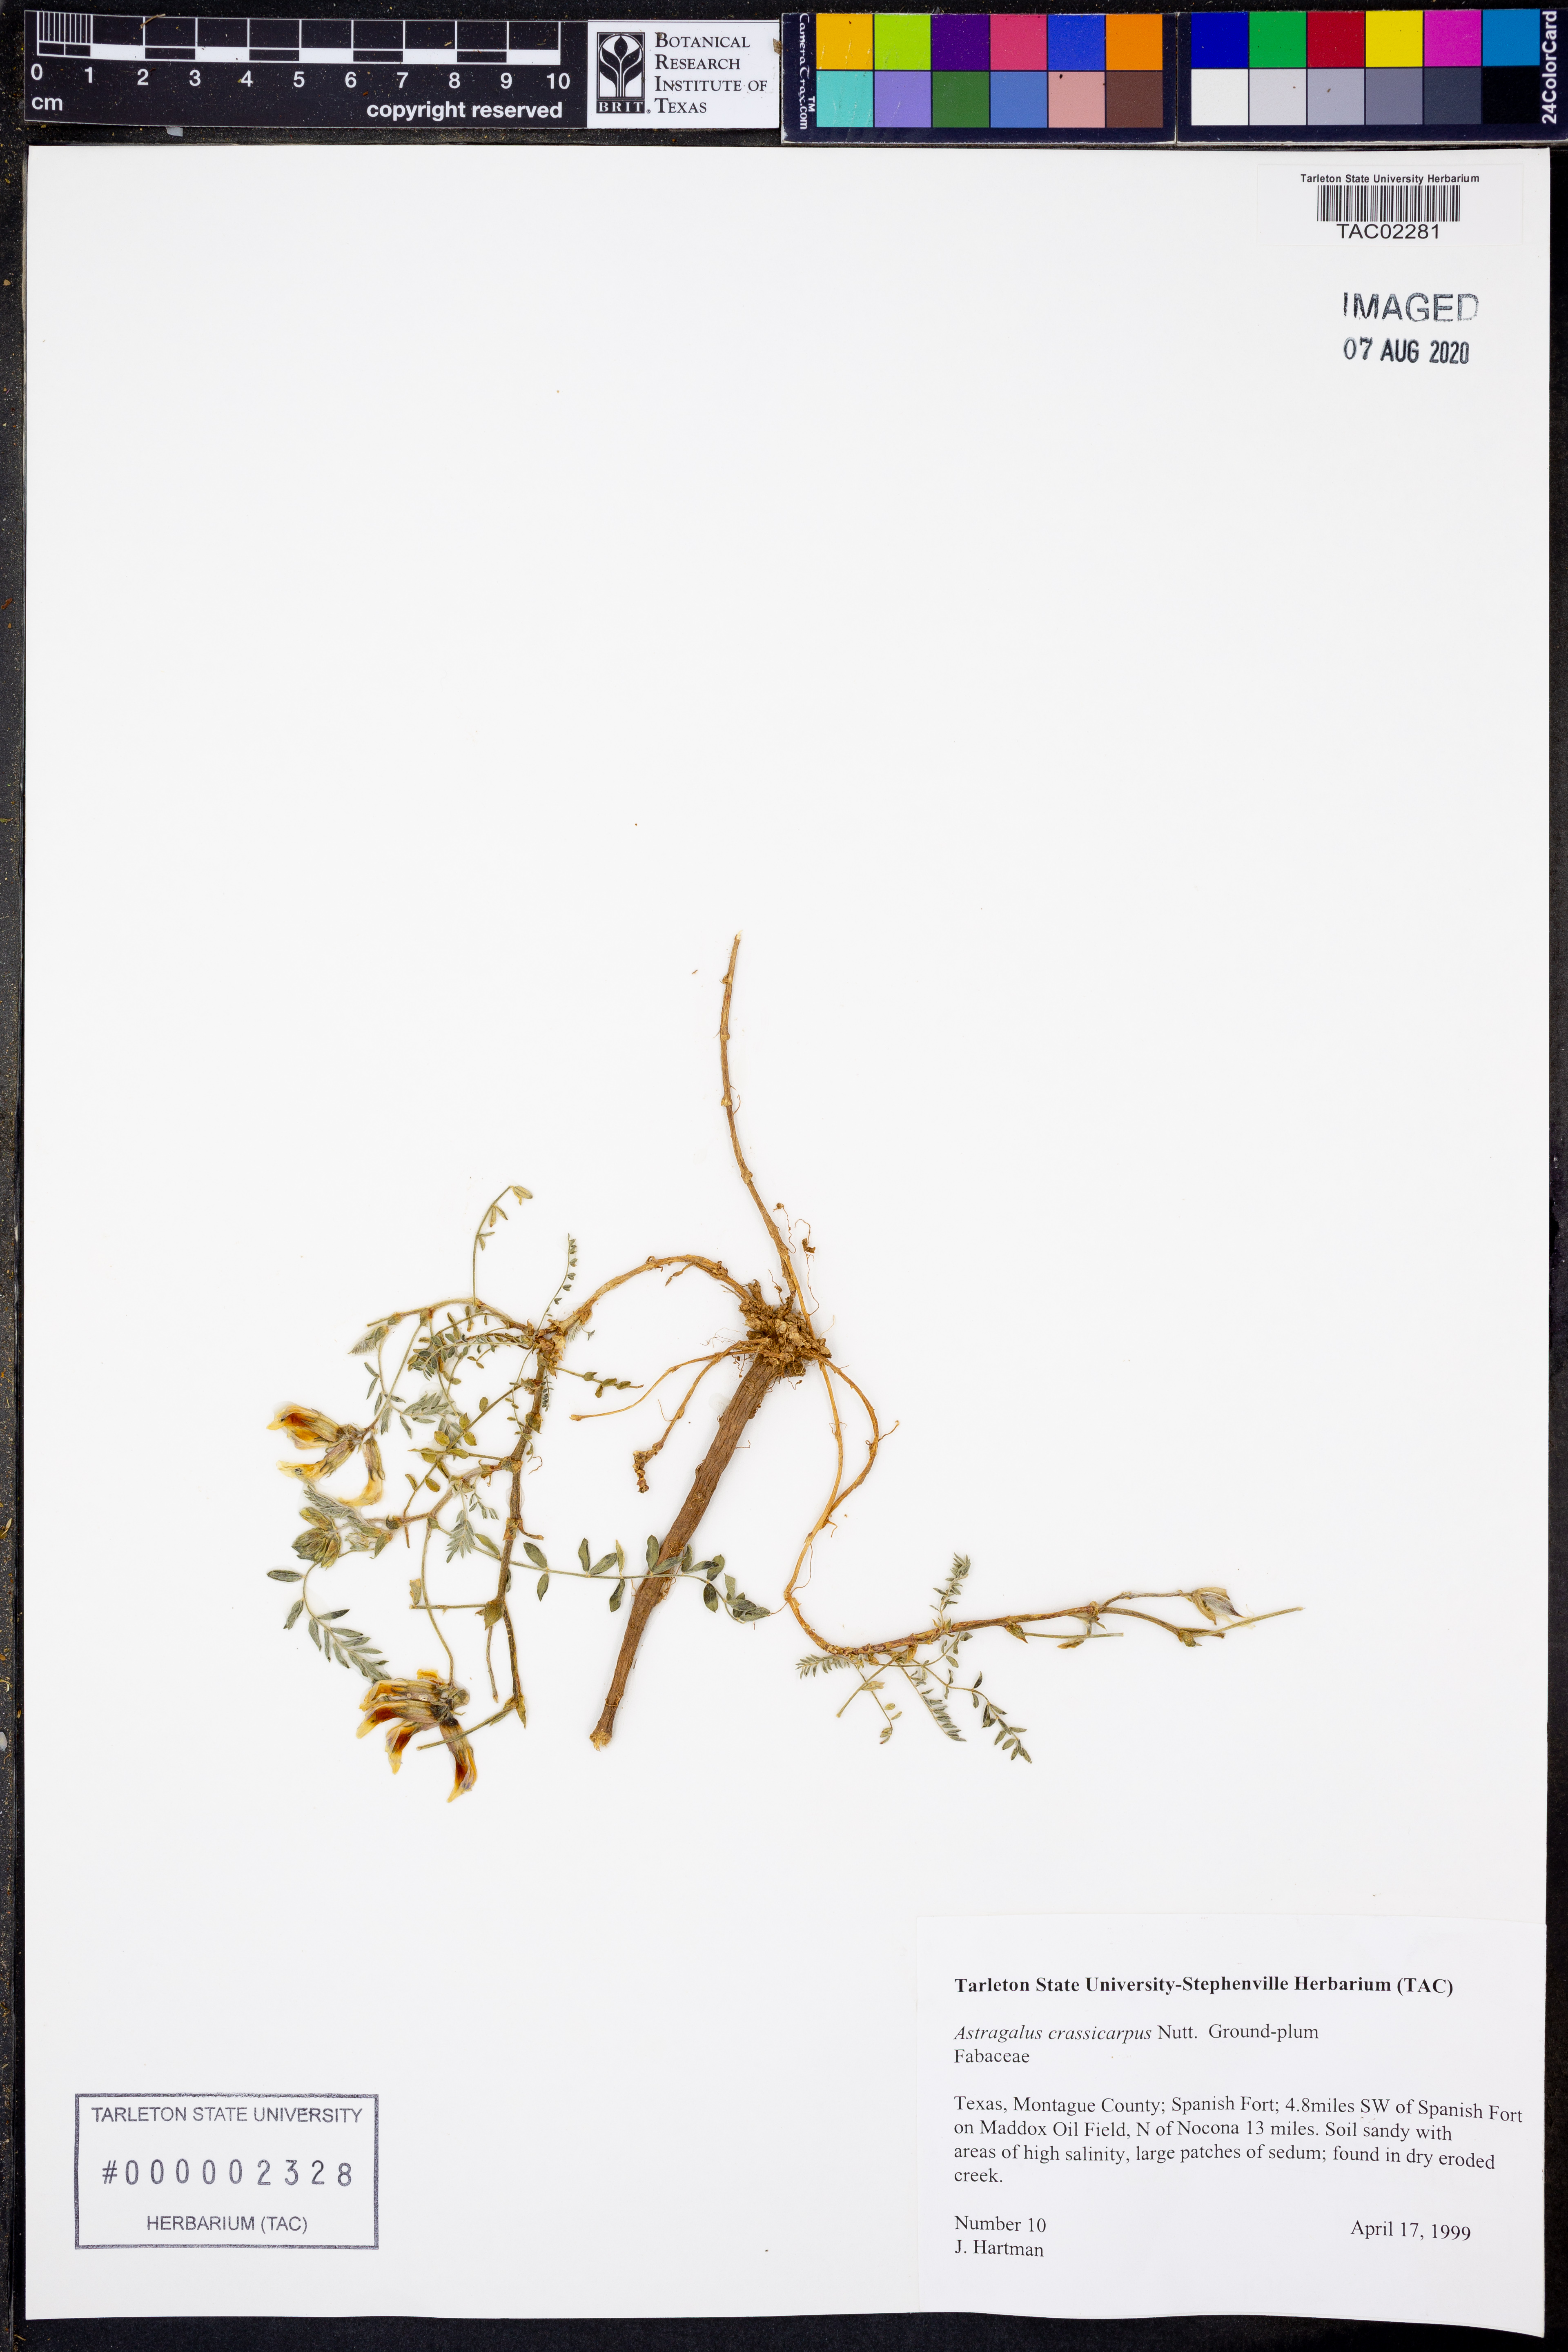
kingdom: Plantae
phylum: Tracheophyta
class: Magnoliopsida
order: Fabales
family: Fabaceae
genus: Astragalus
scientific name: Astragalus crassicarpus
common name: Ground-plum milk-vetch
